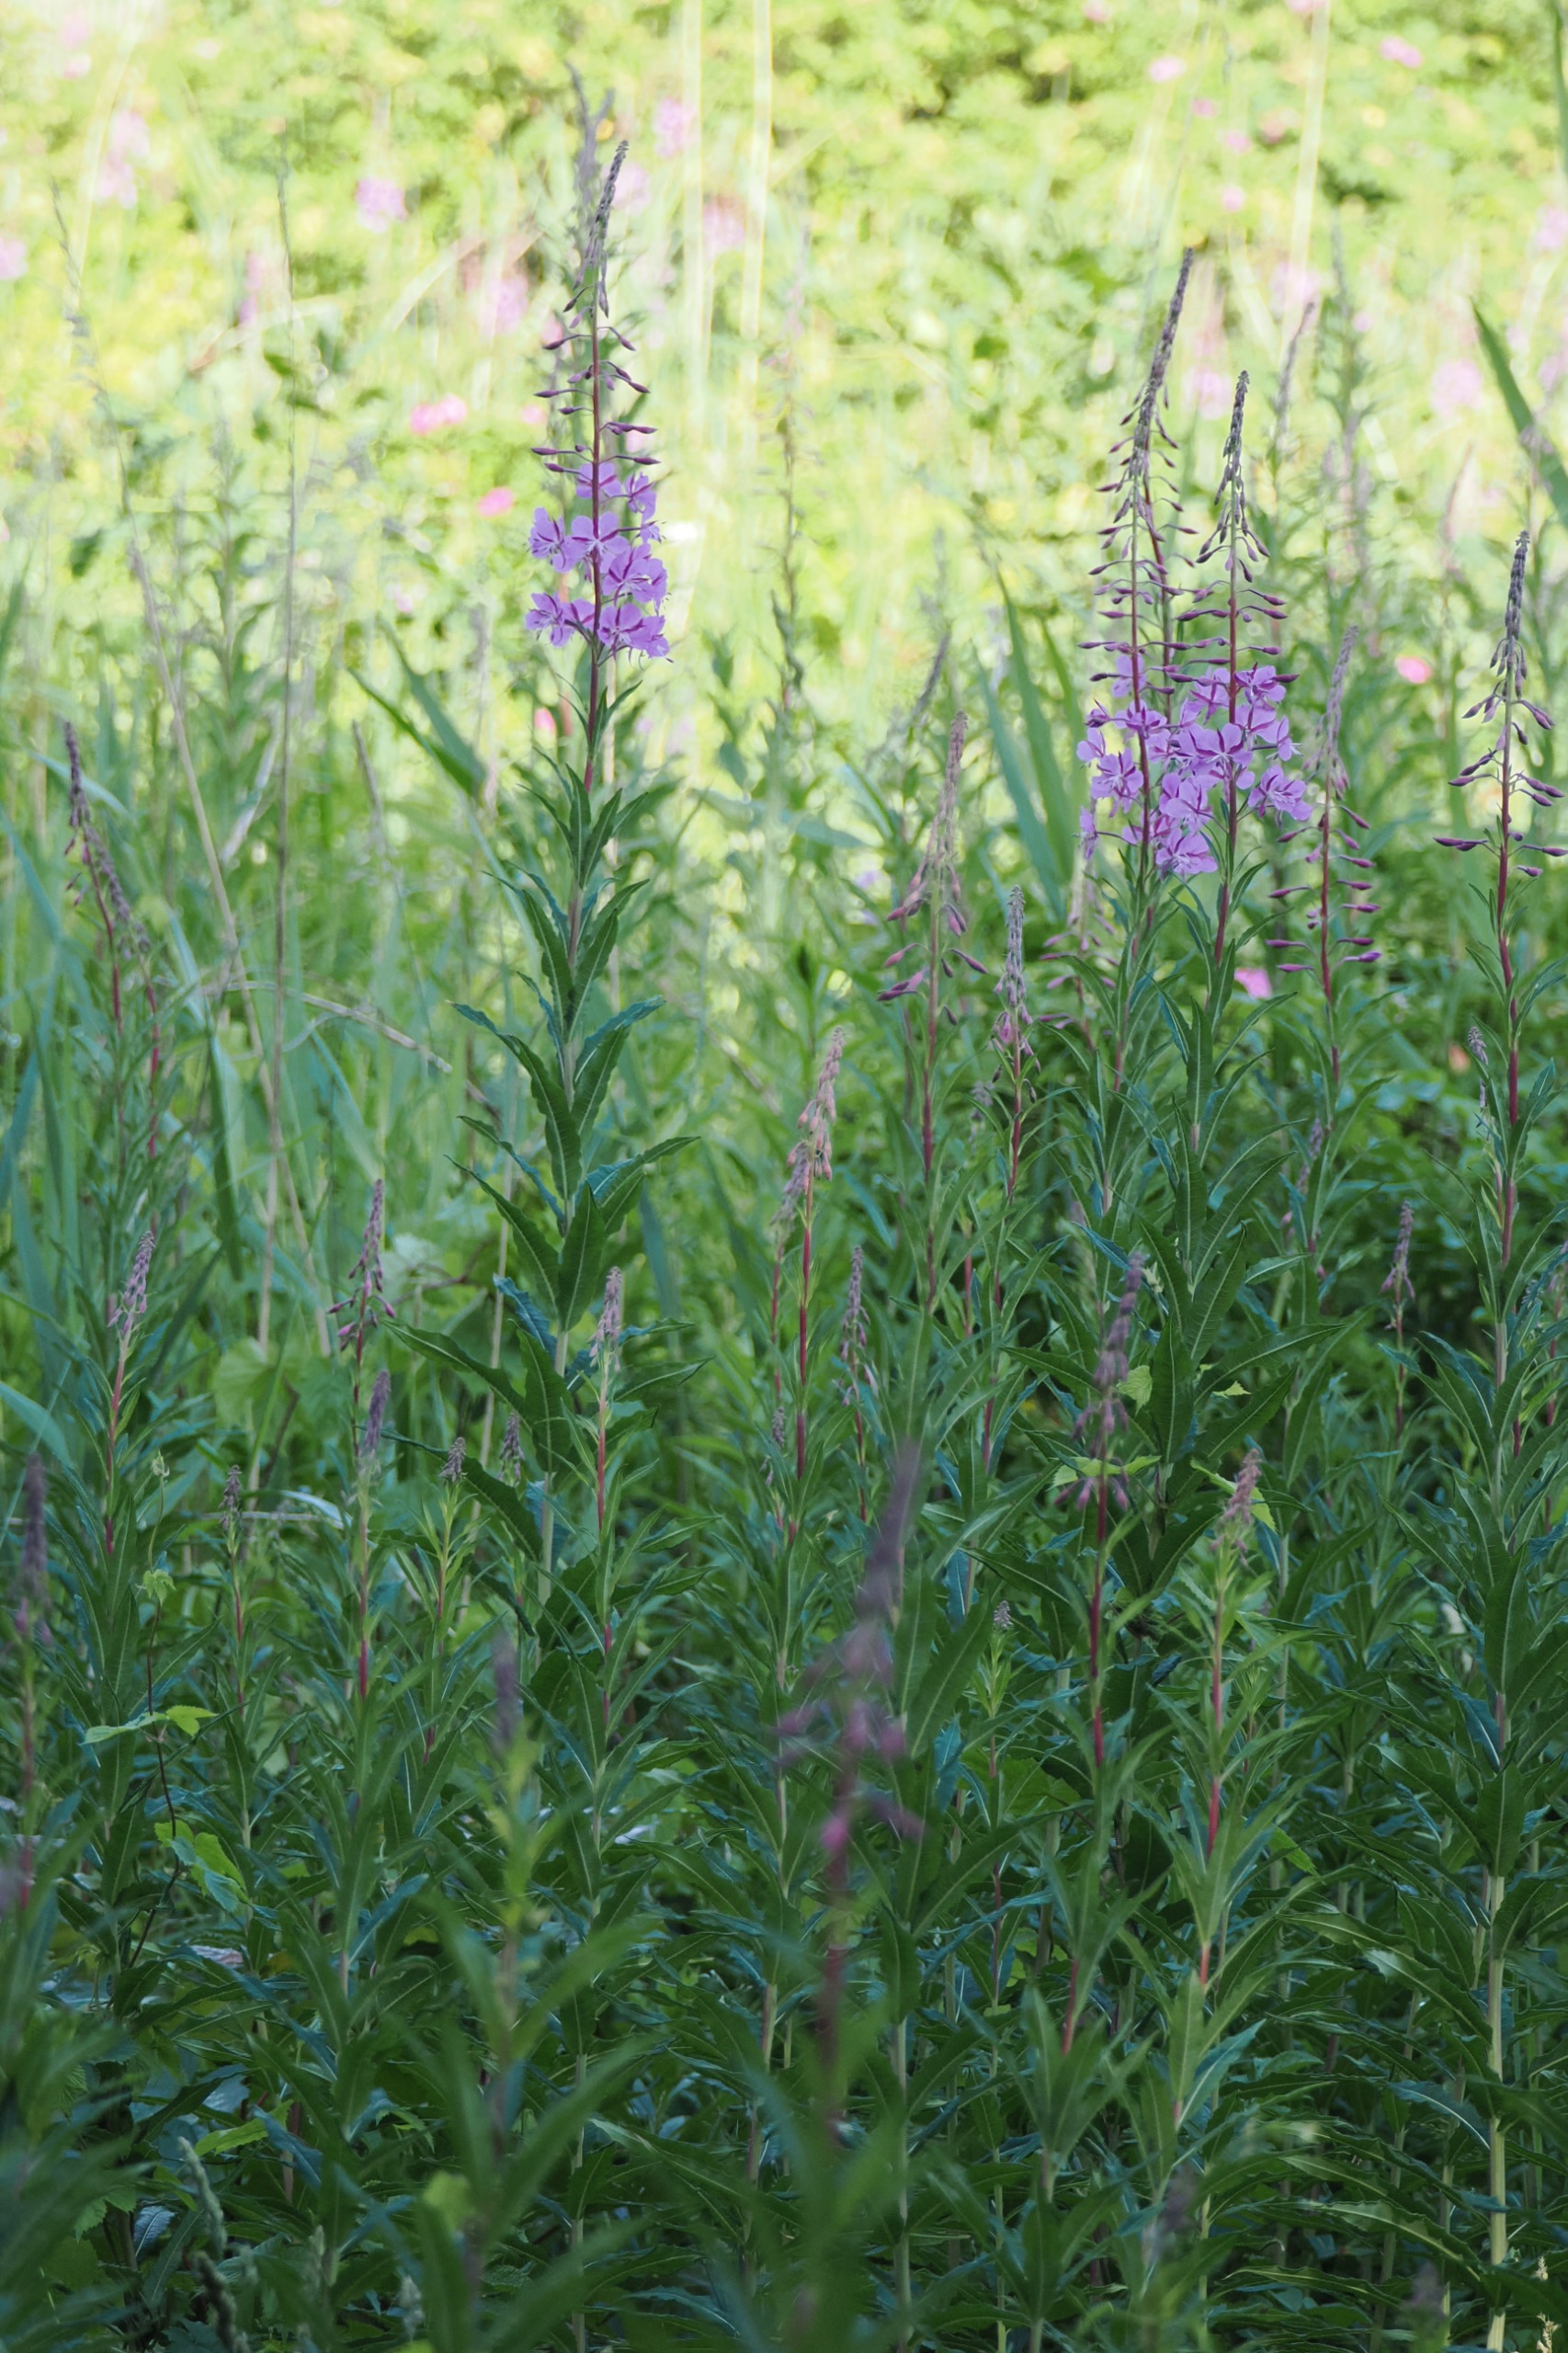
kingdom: Plantae
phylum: Tracheophyta
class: Magnoliopsida
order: Myrtales
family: Onagraceae
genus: Chamaenerion
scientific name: Chamaenerion angustifolium
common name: Gederams
